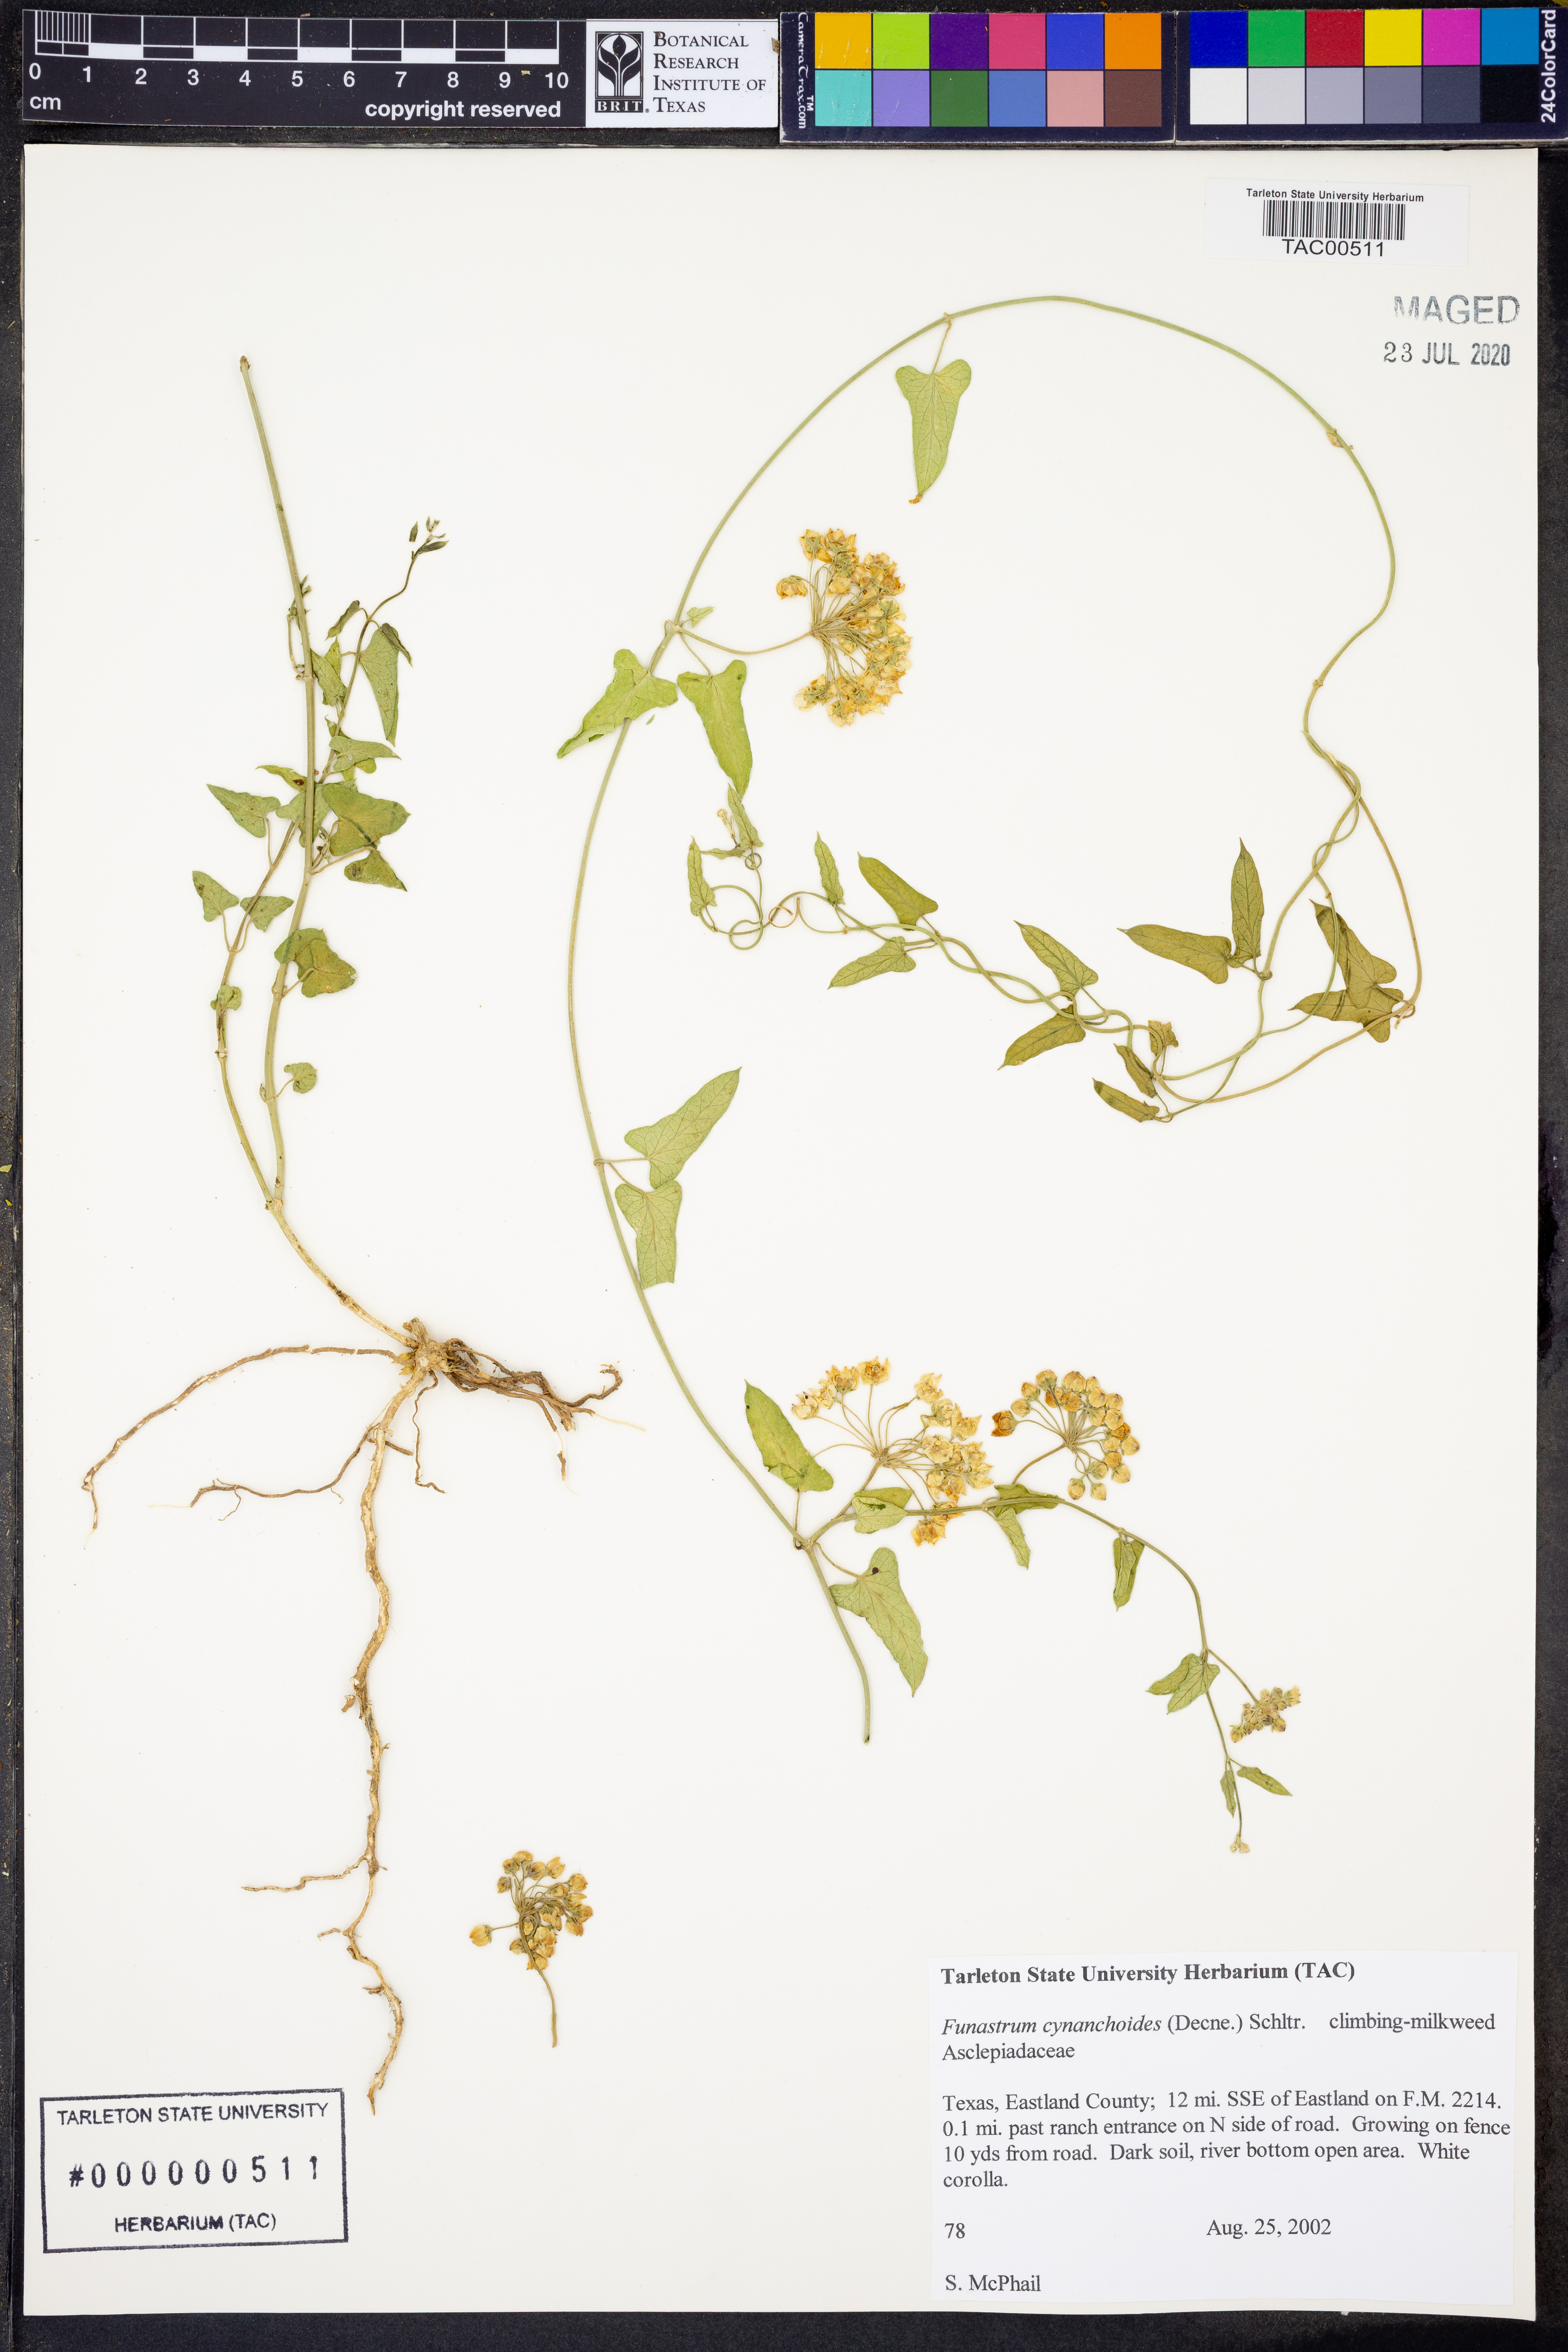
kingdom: Plantae
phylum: Tracheophyta
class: Magnoliopsida
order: Gentianales
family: Apocynaceae
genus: Funastrum
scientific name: Funastrum cynanchoides
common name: Climbing-milkweed
